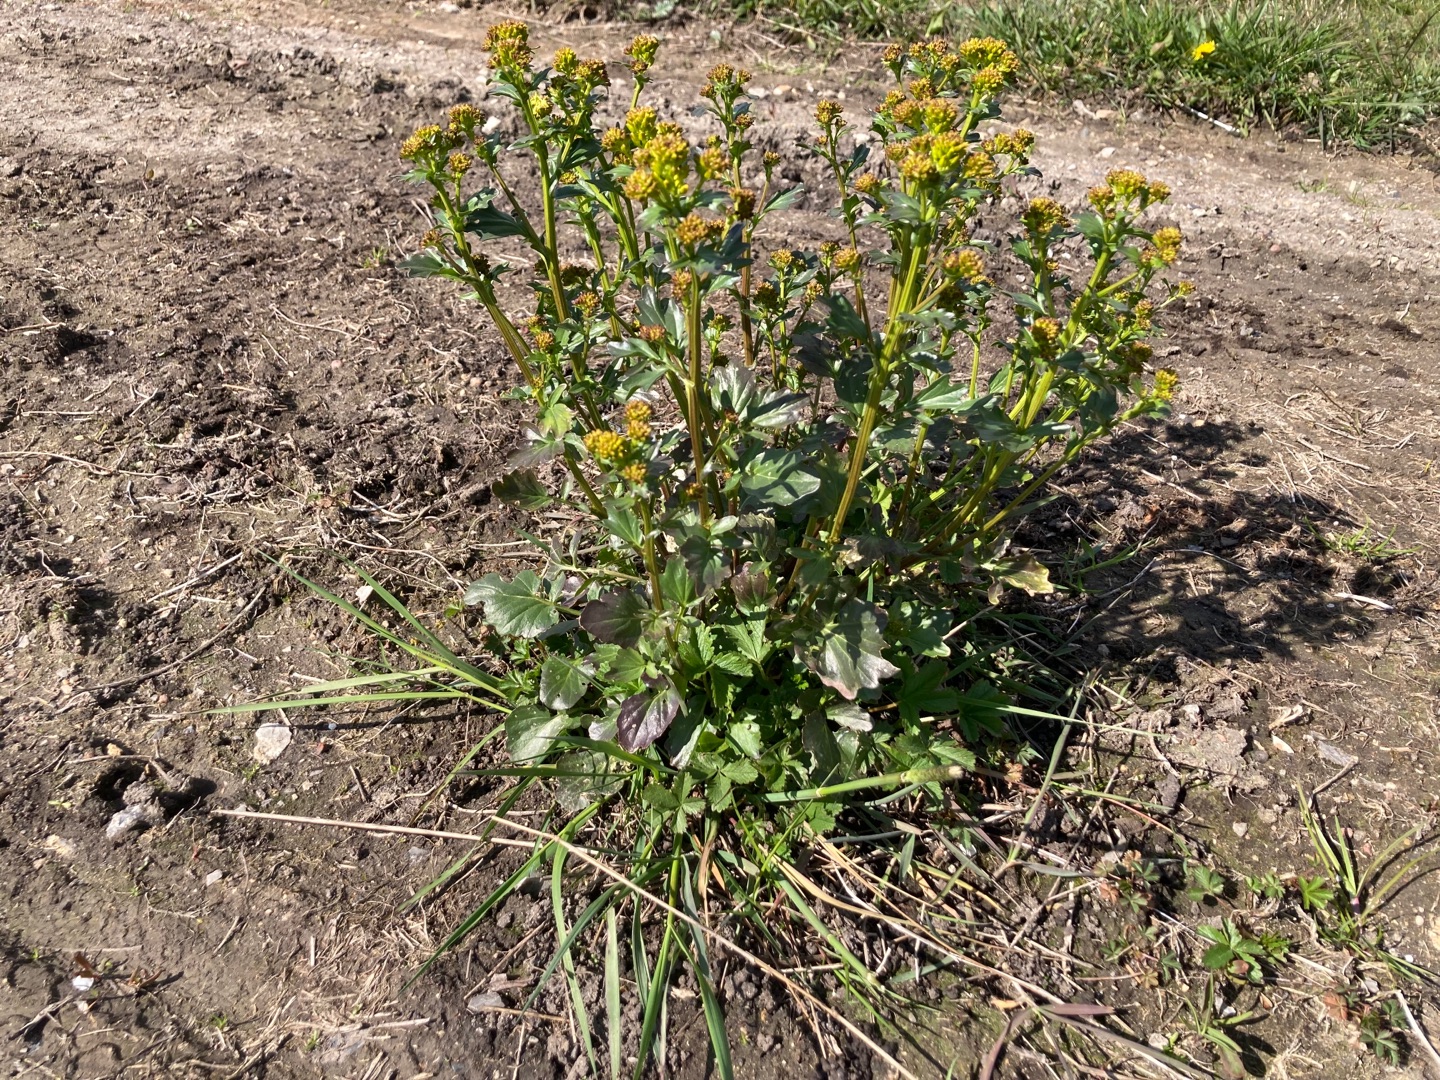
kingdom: Plantae
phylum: Tracheophyta
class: Magnoliopsida
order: Brassicales
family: Brassicaceae
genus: Barbarea
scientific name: Barbarea vulgaris
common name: Almindelig vinterkarse
